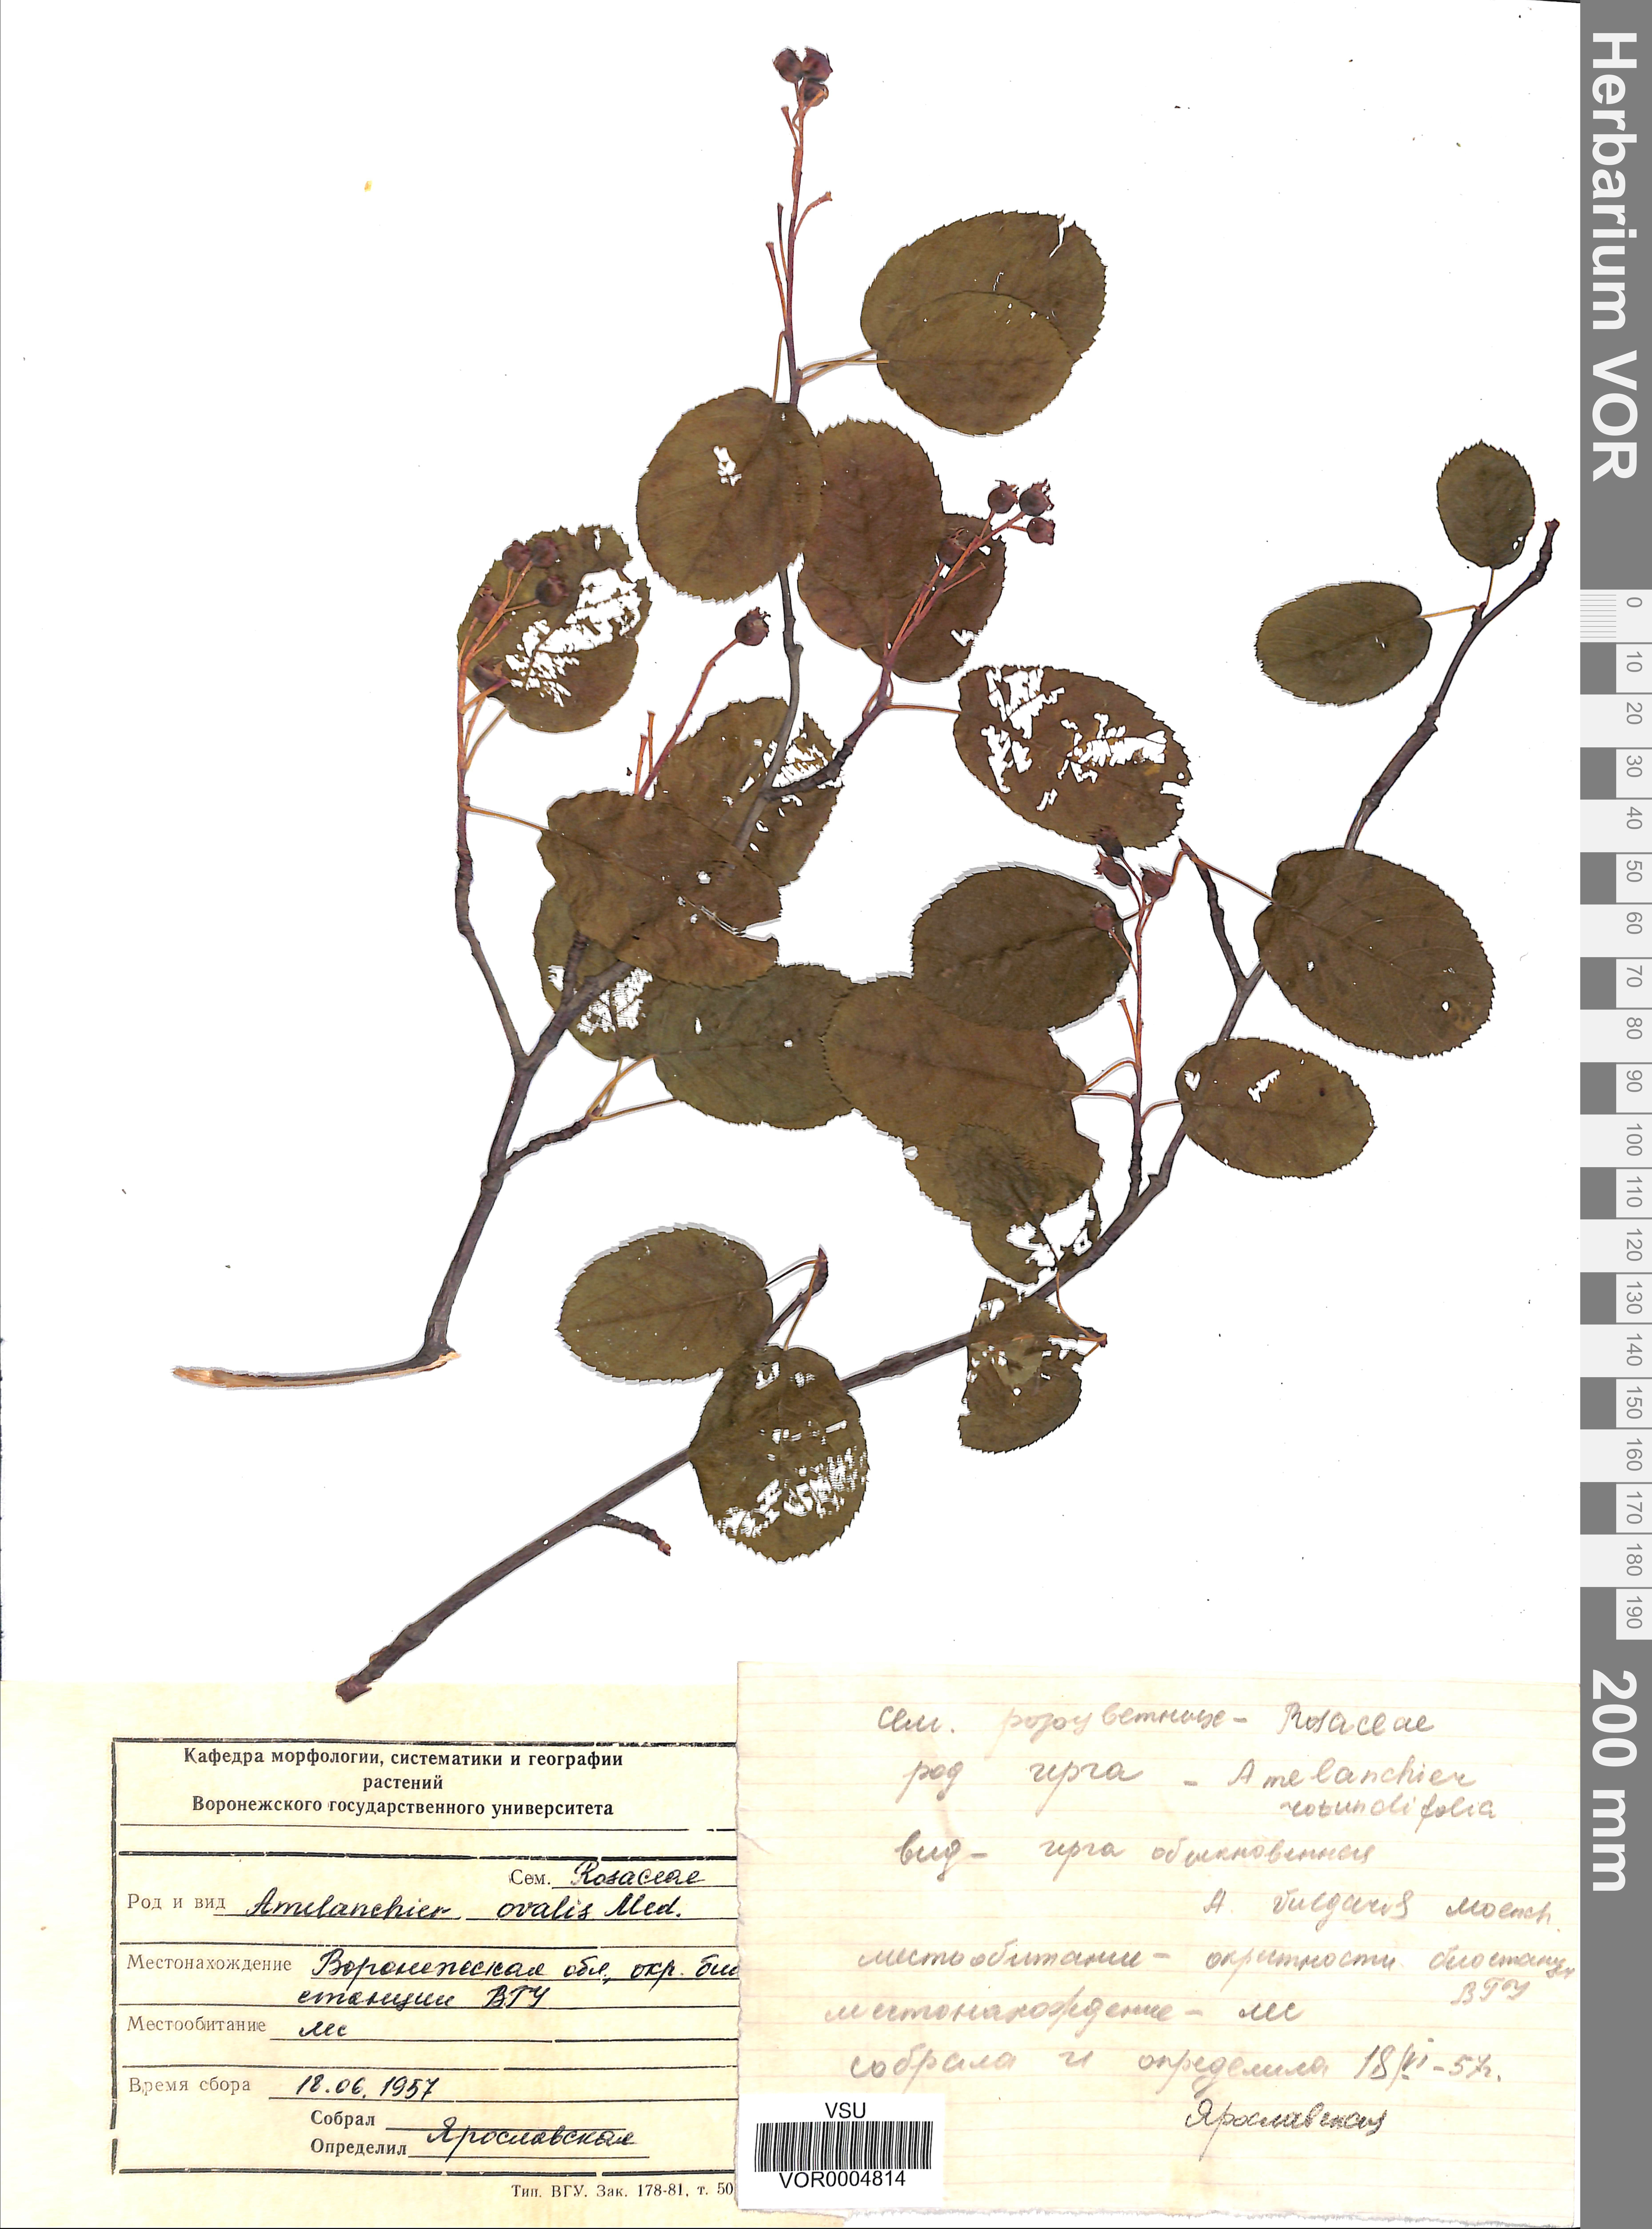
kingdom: Plantae
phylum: Tracheophyta
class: Magnoliopsida
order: Rosales
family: Rosaceae
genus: Amelanchier
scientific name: Amelanchier ovalis
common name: Serviceberry
